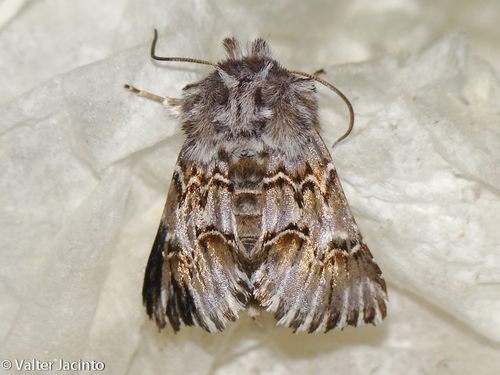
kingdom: Animalia
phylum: Arthropoda
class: Insecta
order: Lepidoptera
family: Noctuidae
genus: Cleonymia
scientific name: Cleonymia baetica
